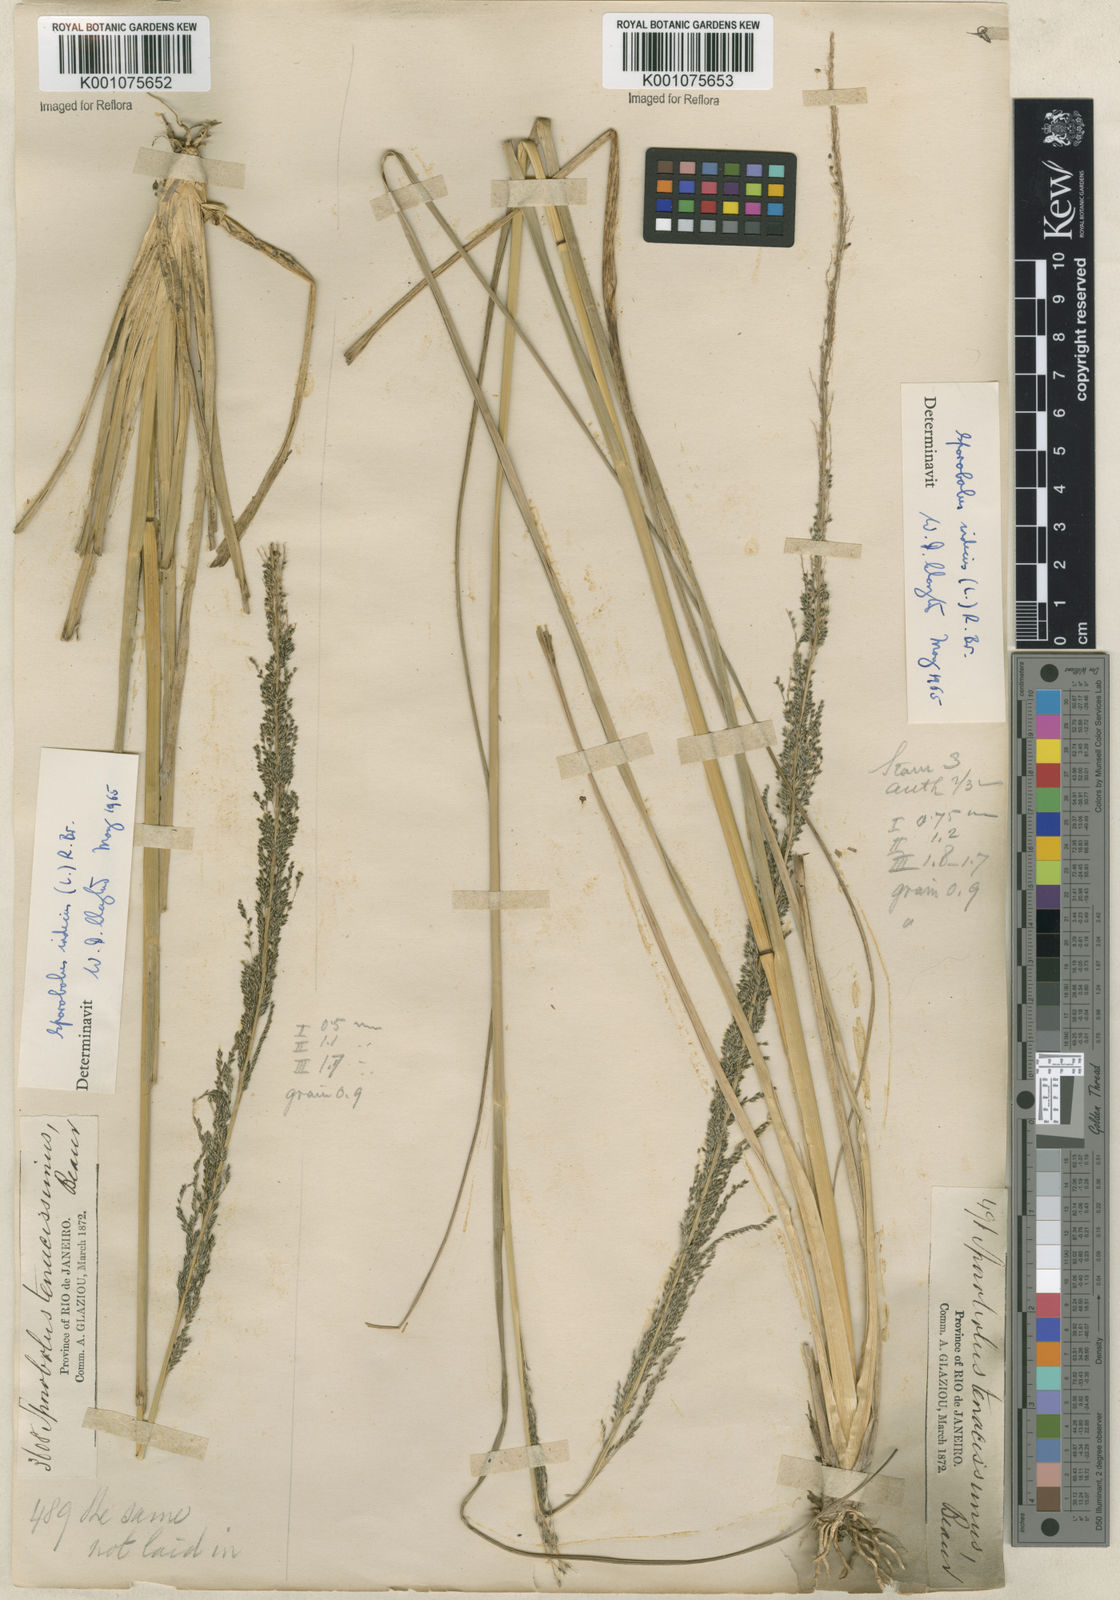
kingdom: Plantae
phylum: Tracheophyta
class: Liliopsida
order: Poales
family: Poaceae
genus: Sporobolus
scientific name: Sporobolus indicus
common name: Smut grass
